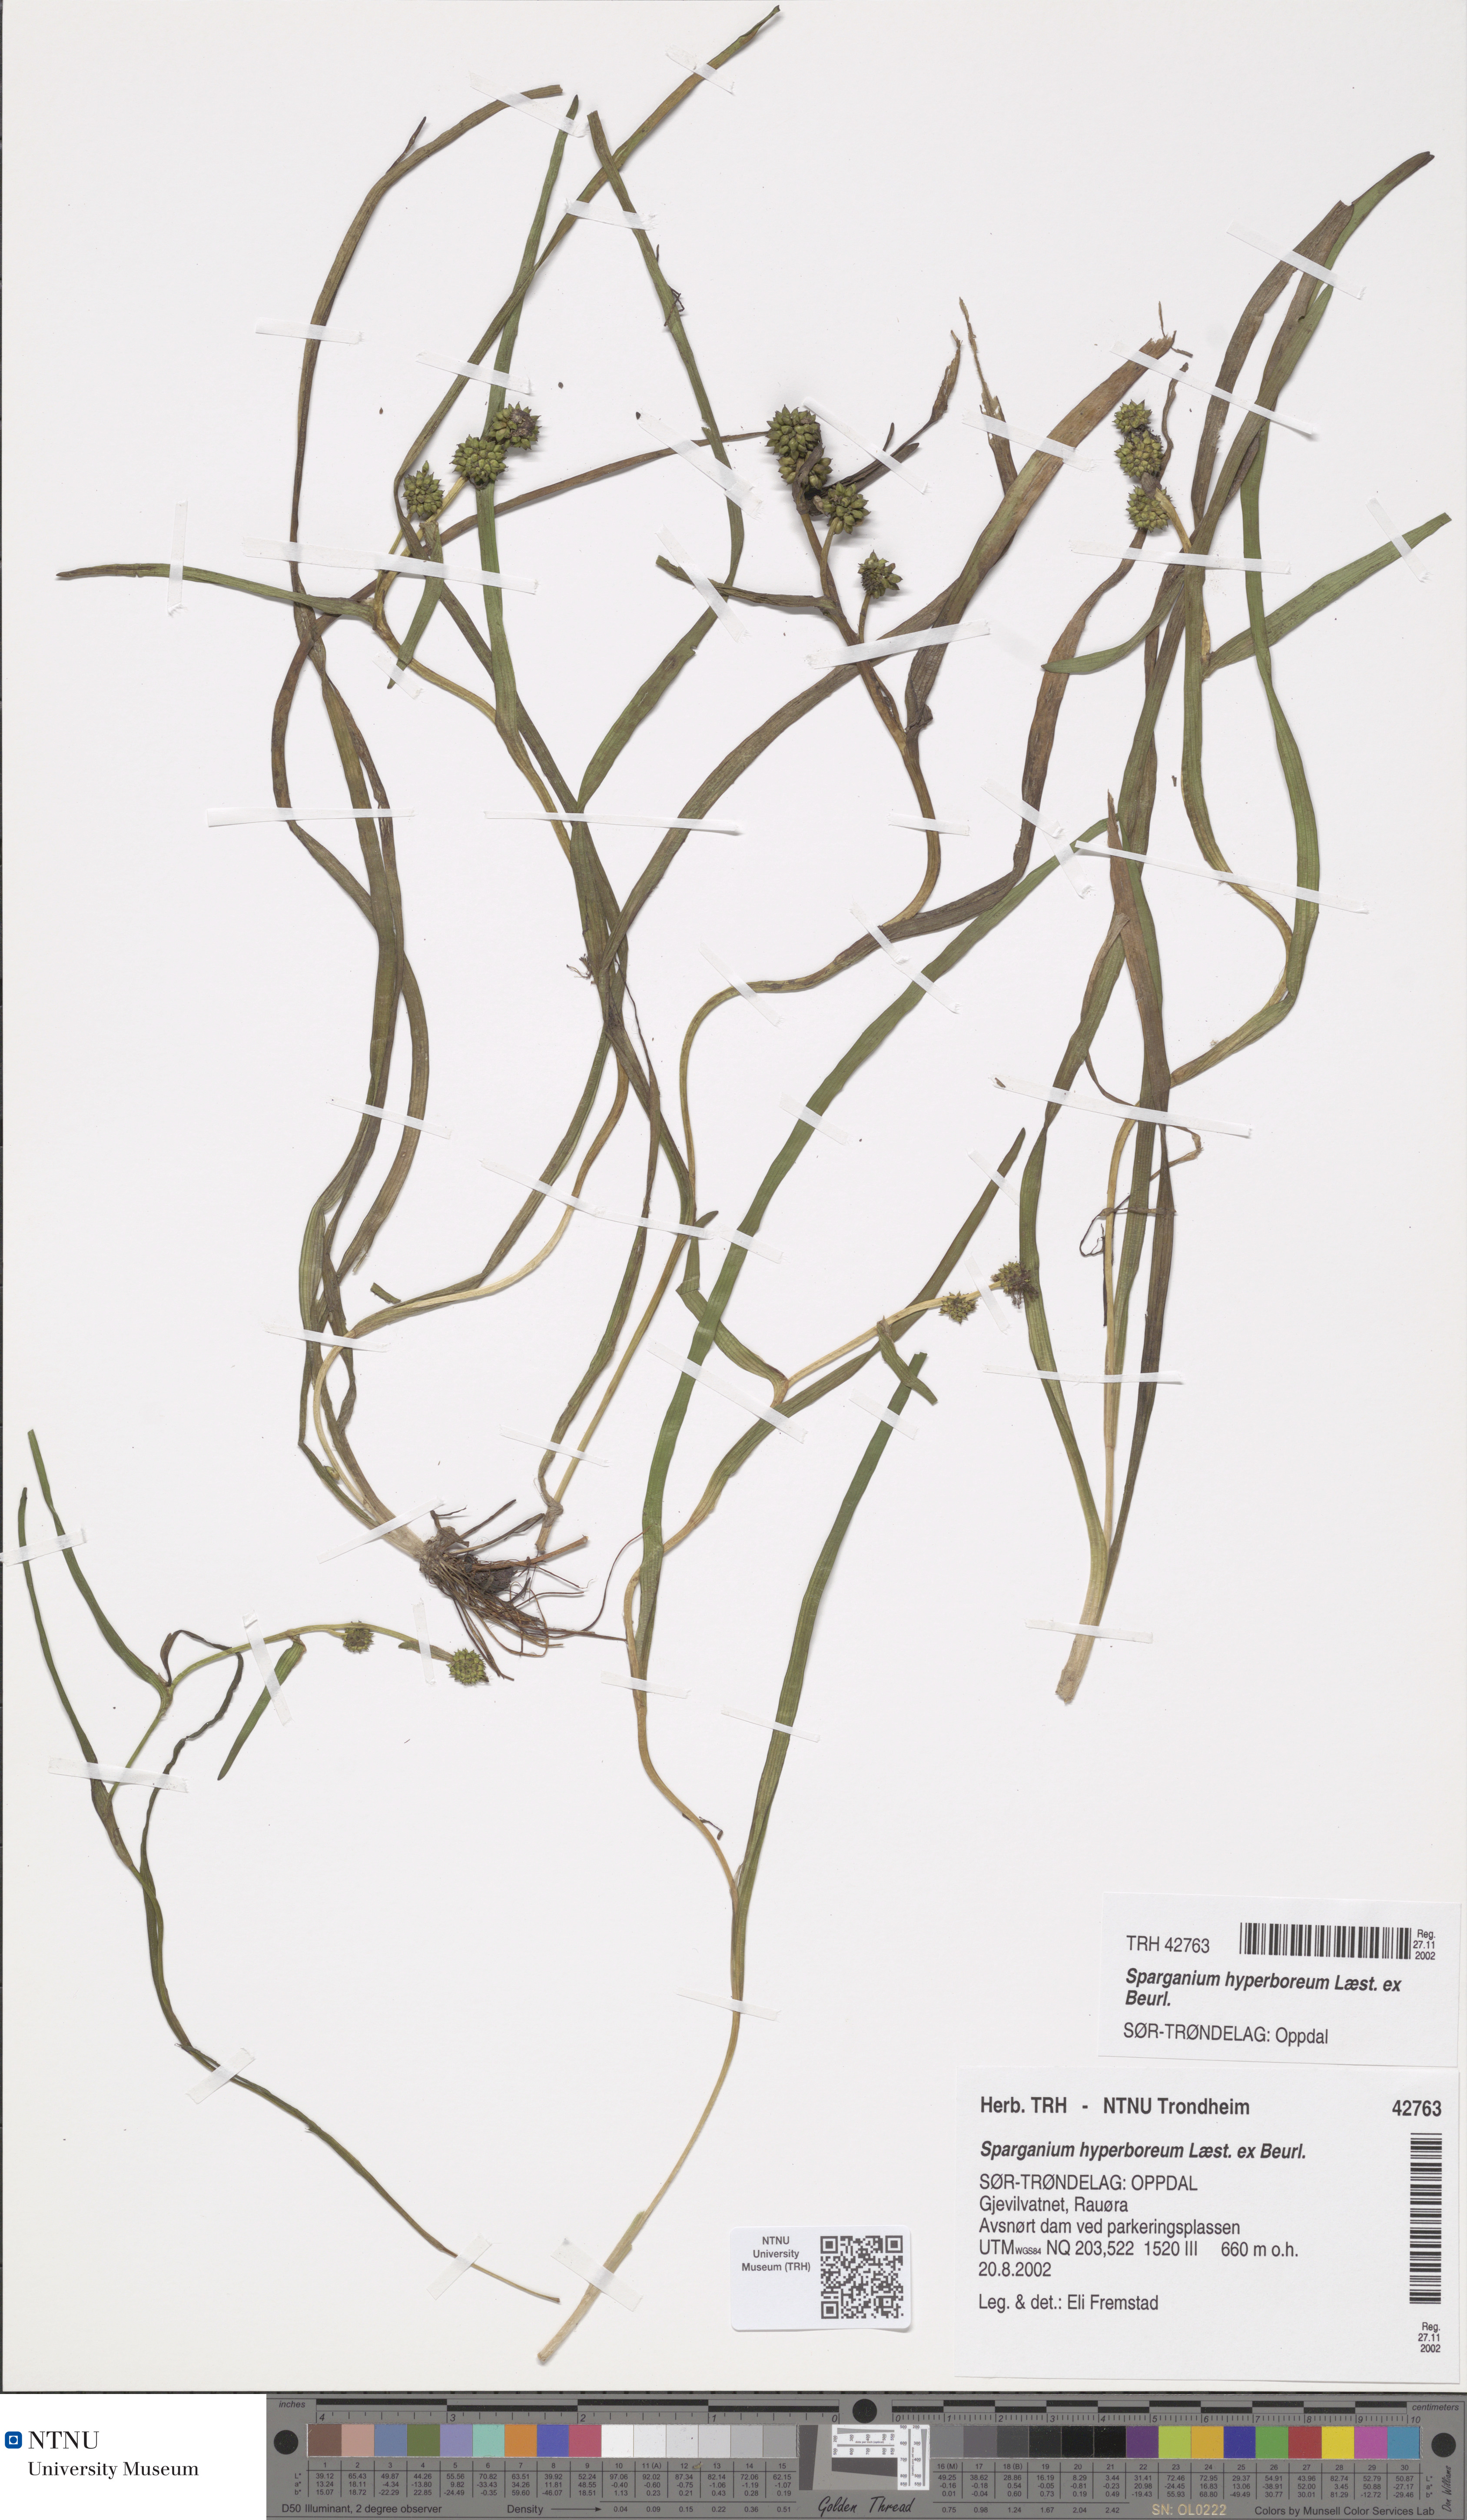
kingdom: Plantae
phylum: Tracheophyta
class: Liliopsida
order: Poales
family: Typhaceae
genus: Sparganium
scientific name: Sparganium hyperboreum
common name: Arctic burreed
